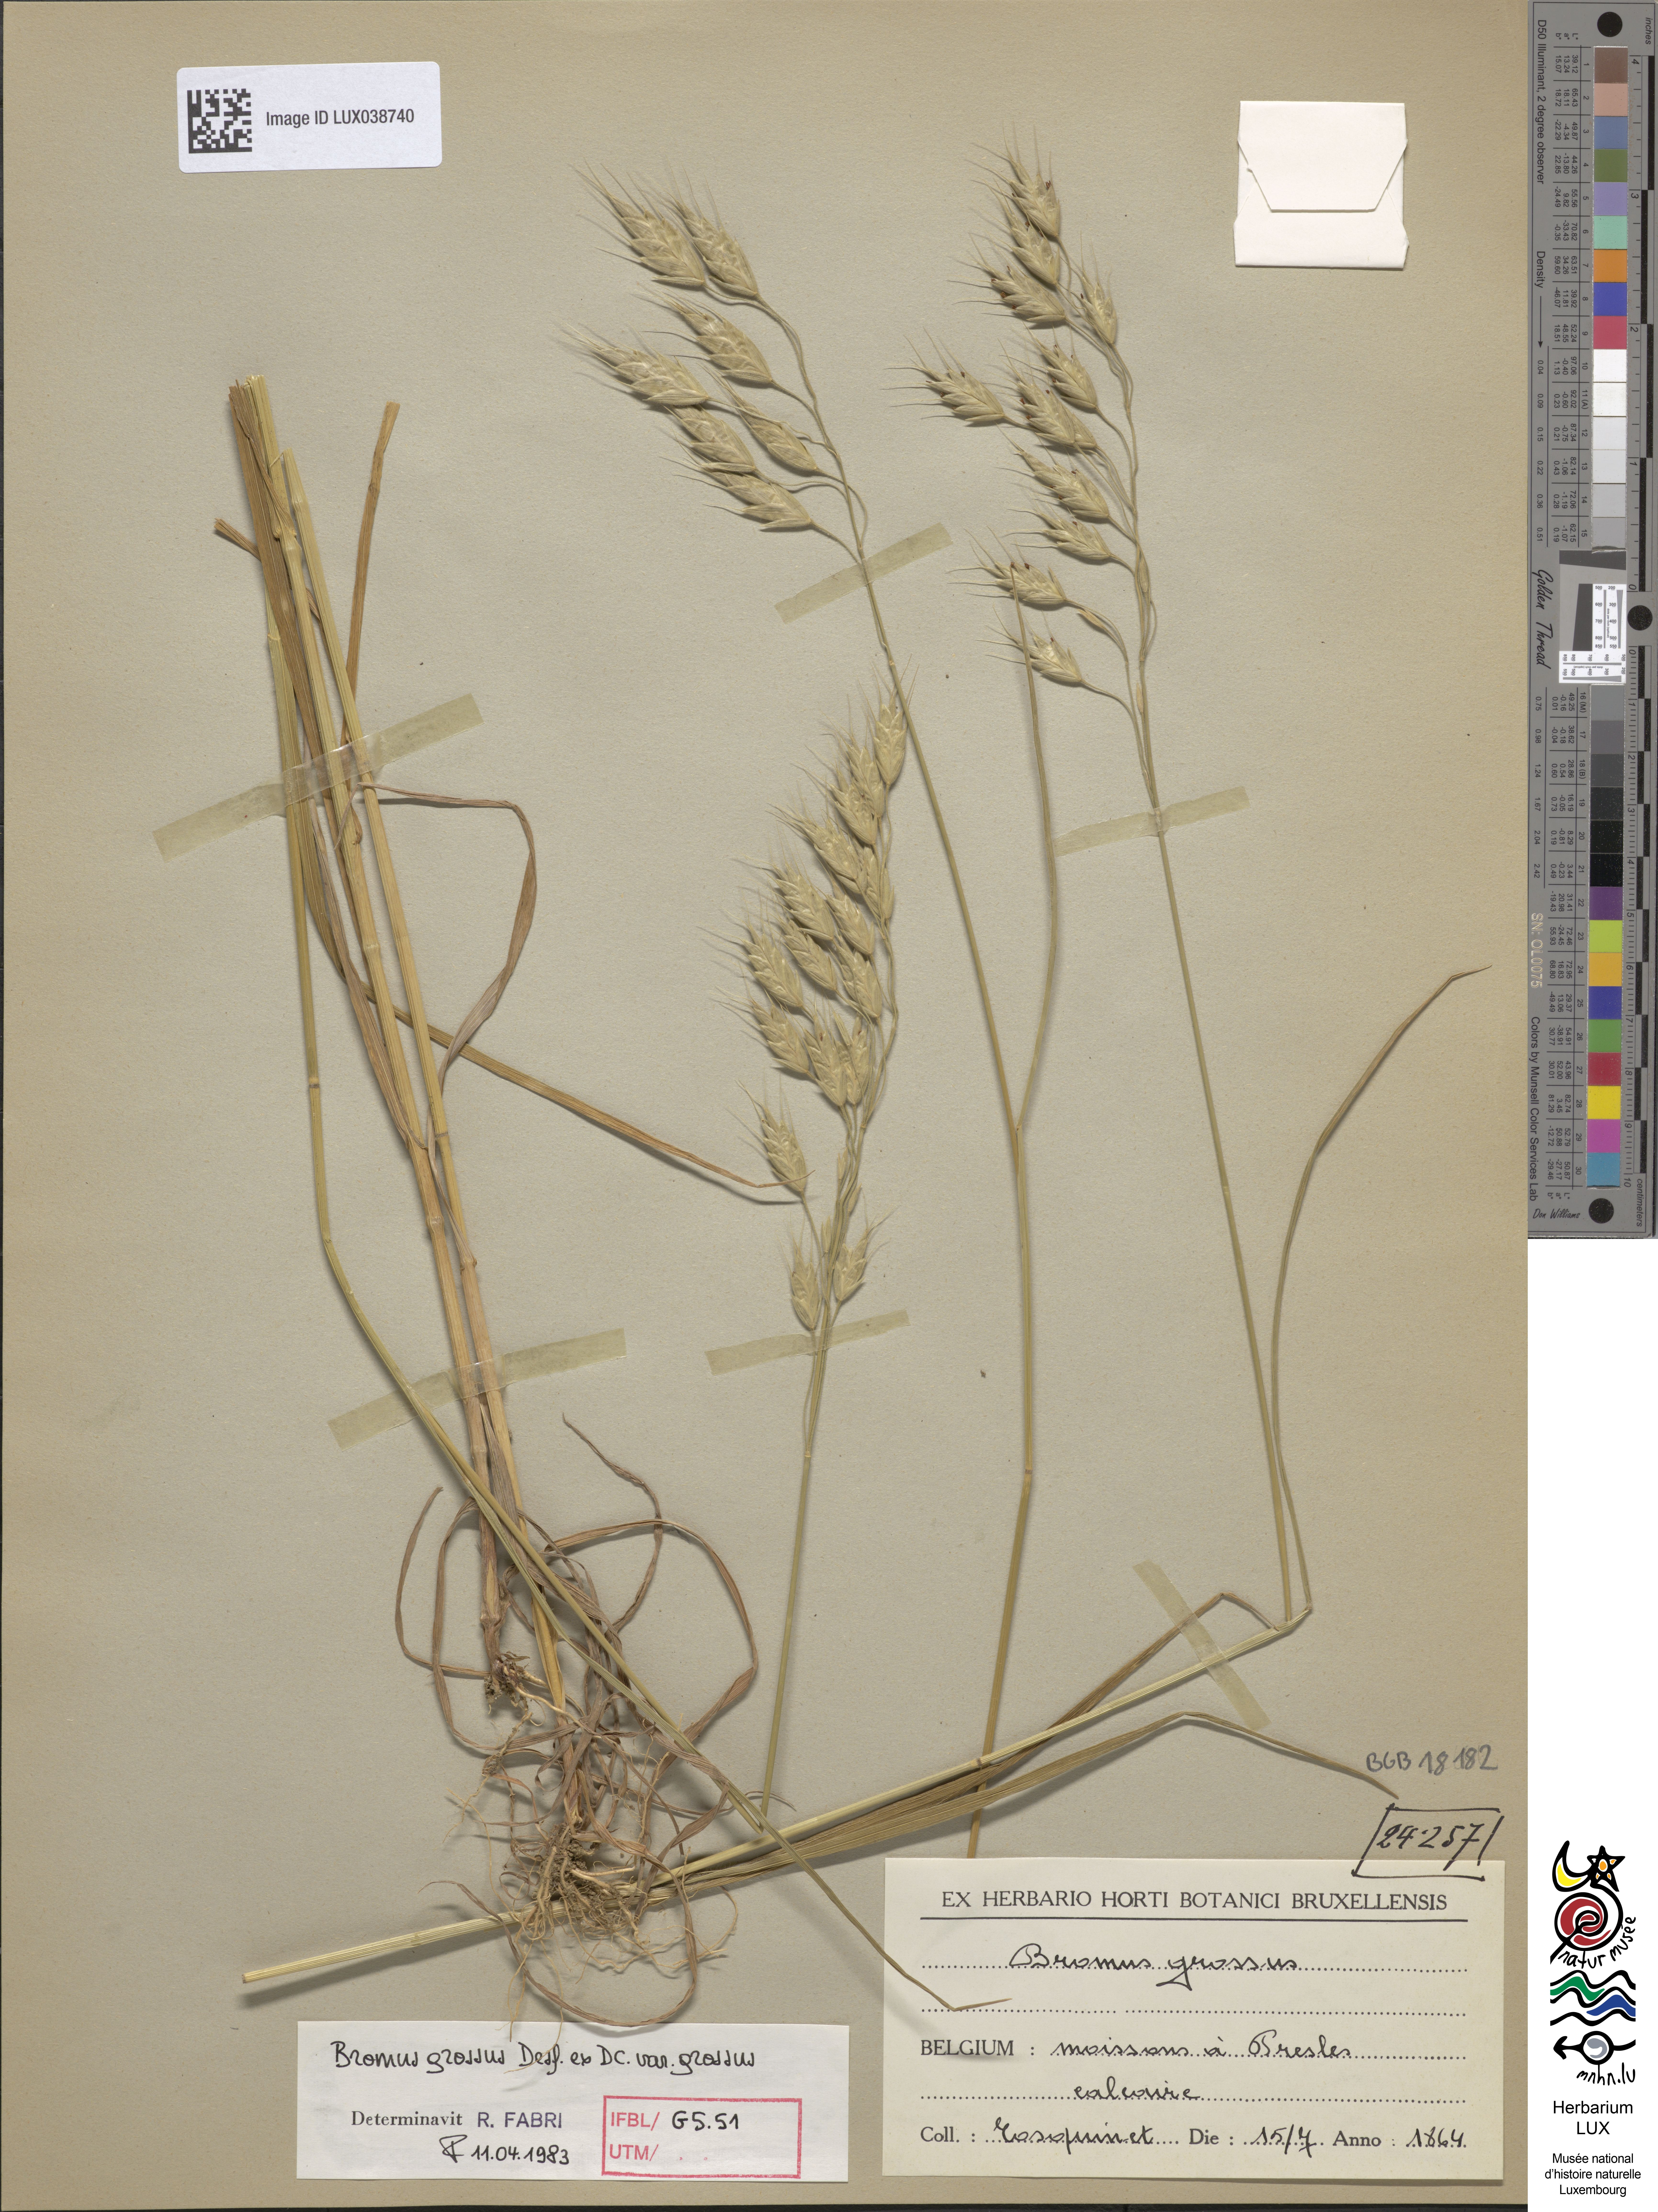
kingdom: Plantae
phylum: Tracheophyta
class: Liliopsida
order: Poales
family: Poaceae
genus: Bromus
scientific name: Bromus grossus
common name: Whiskered brome
